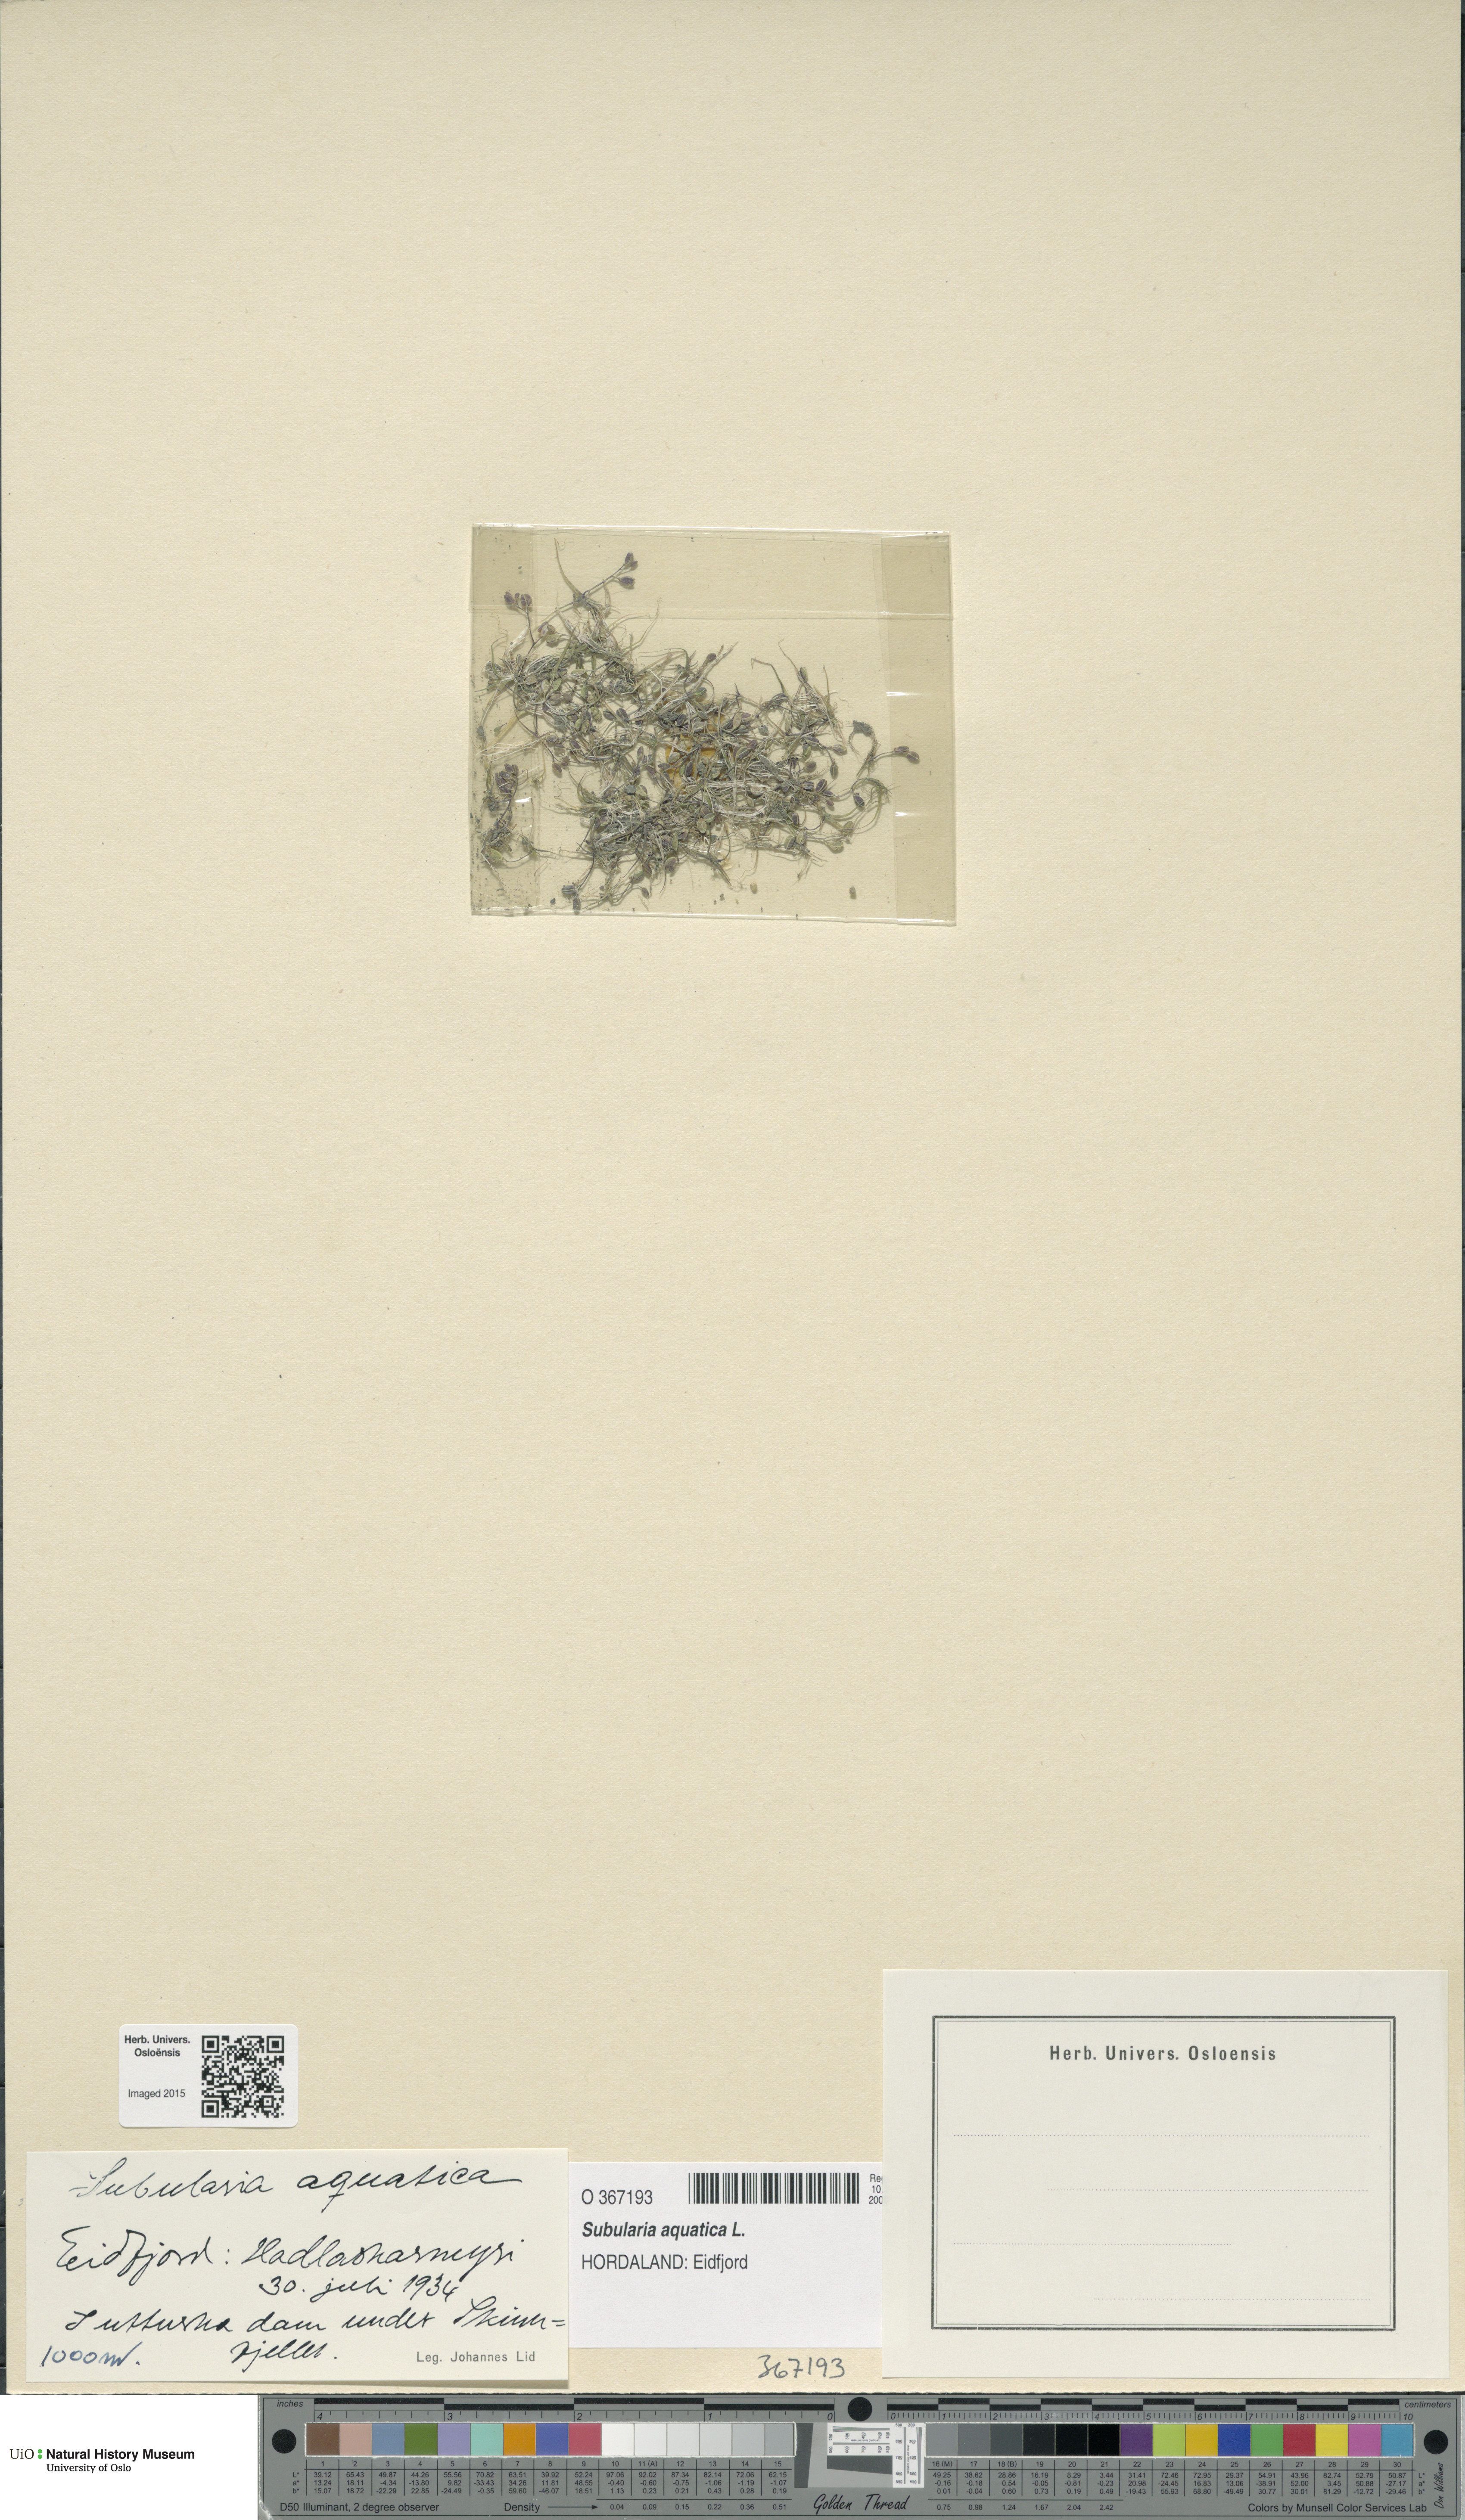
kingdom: Plantae
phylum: Tracheophyta
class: Magnoliopsida
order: Brassicales
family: Brassicaceae
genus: Subularia
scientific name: Subularia aquatica
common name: Awlwort
